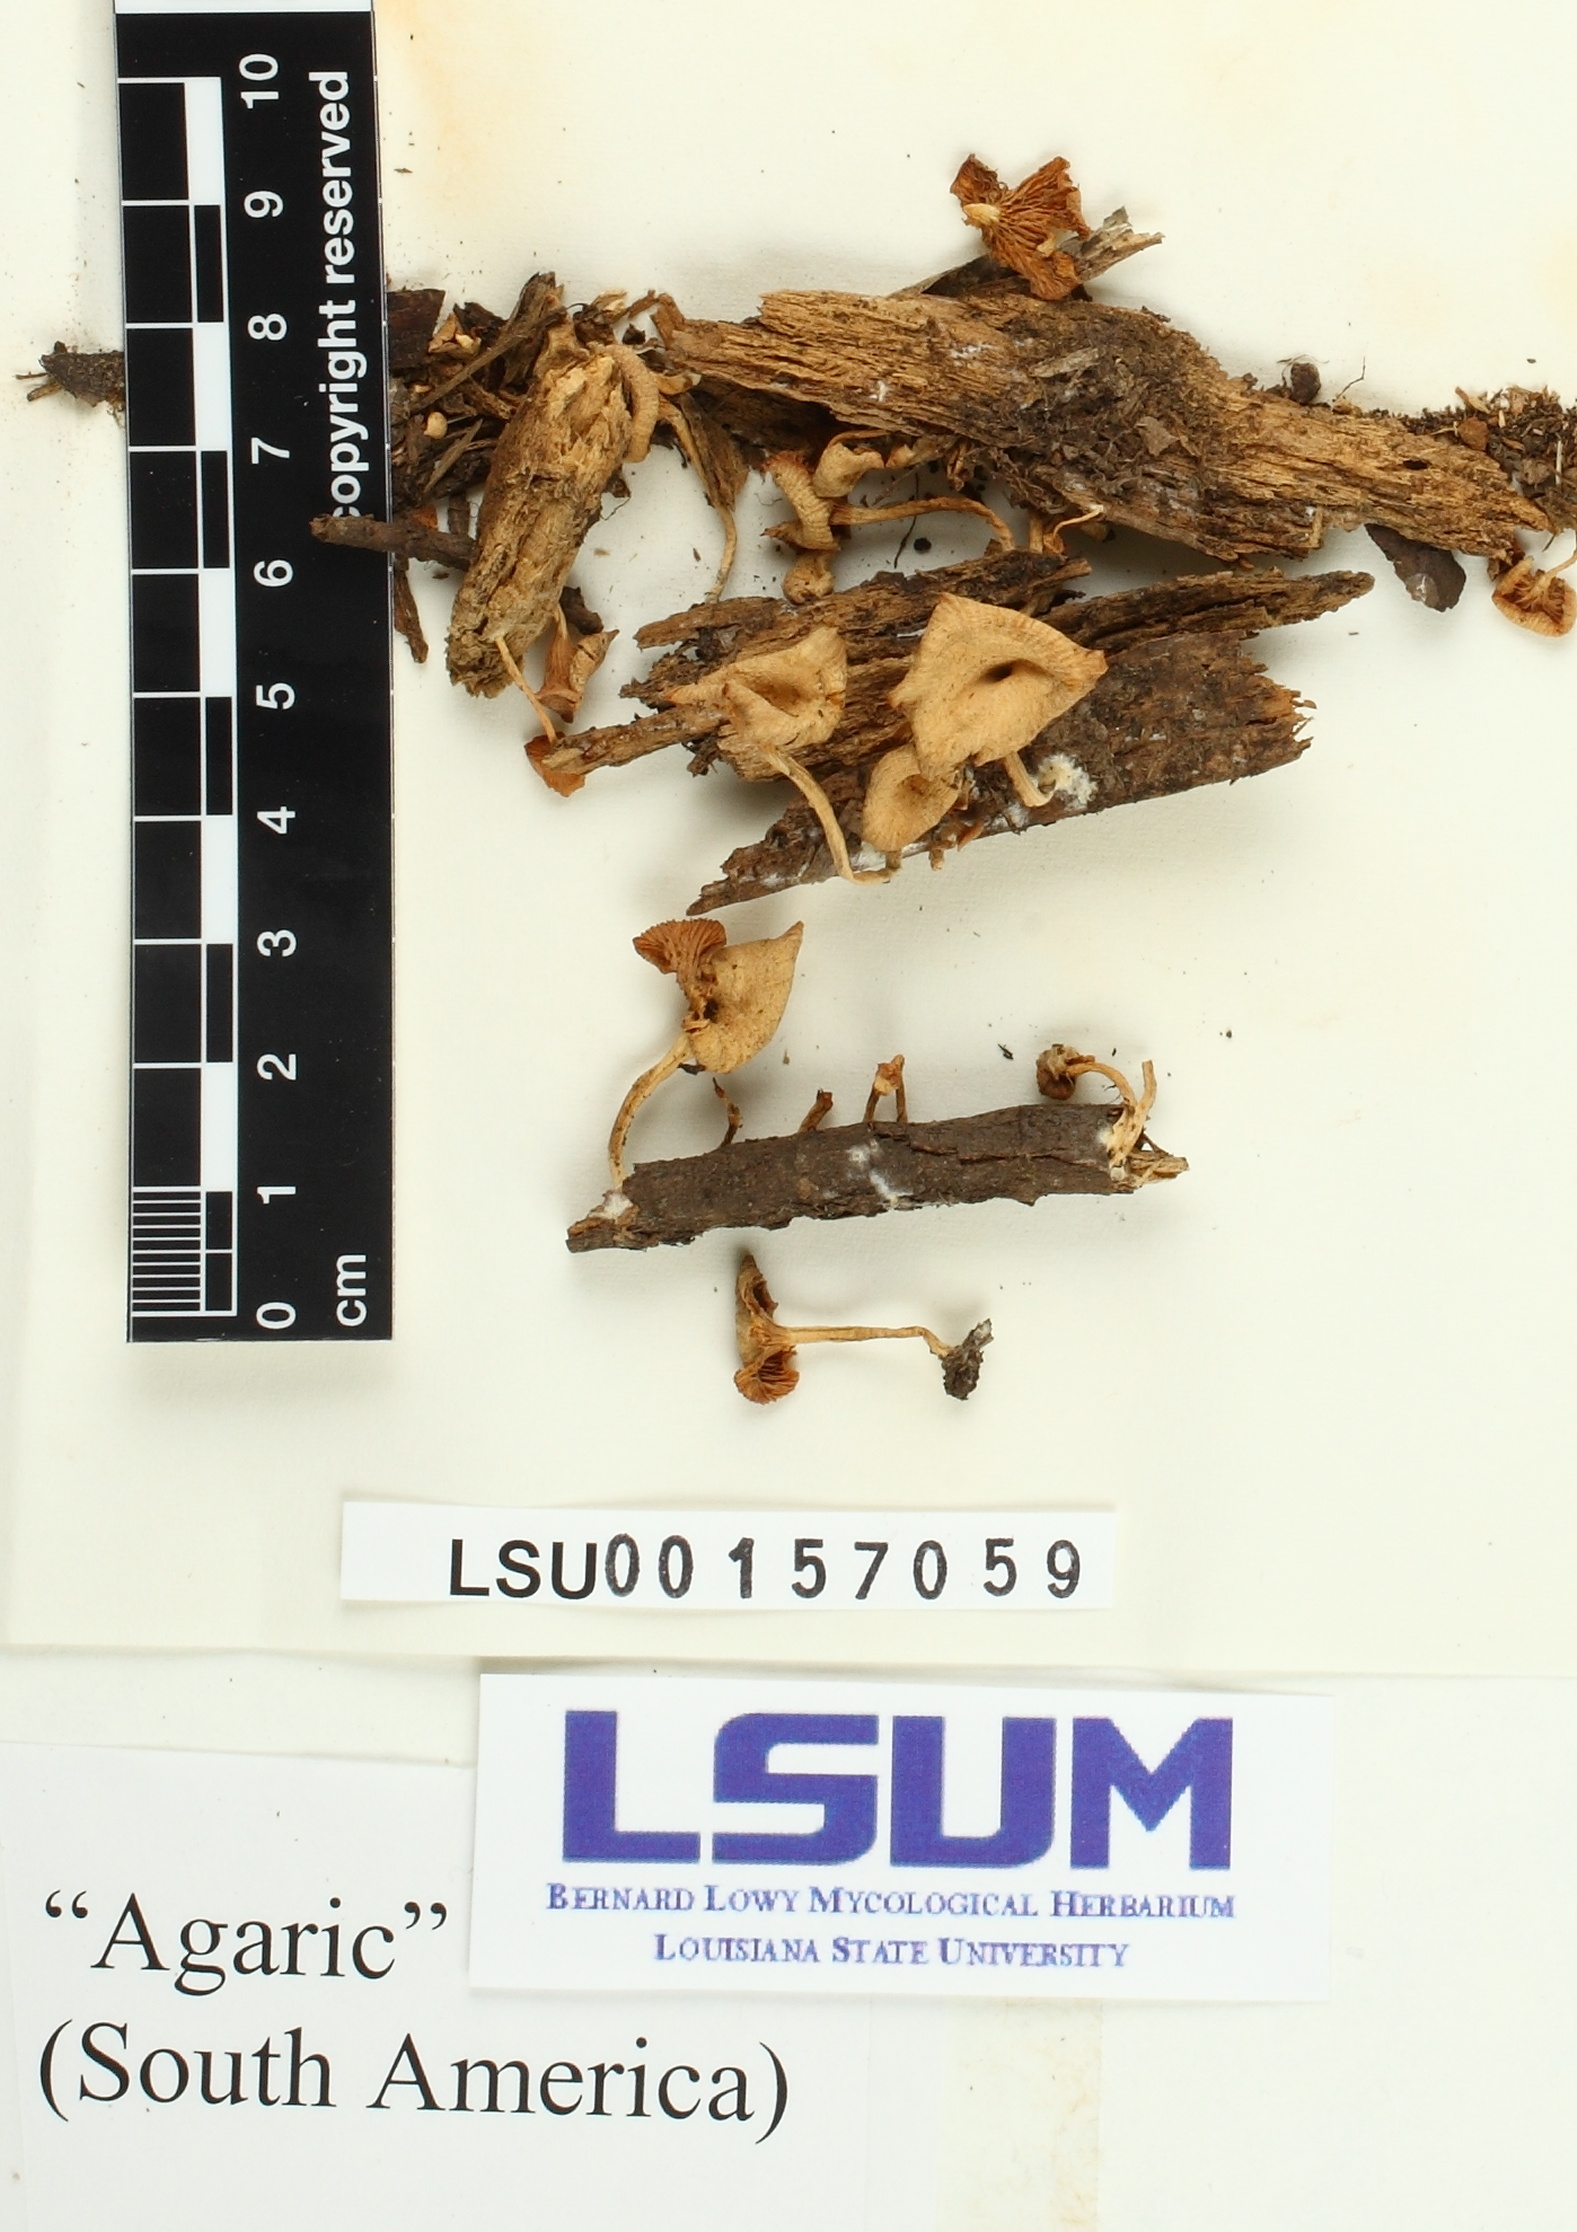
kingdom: Fungi
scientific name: Fungi
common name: Fungi
